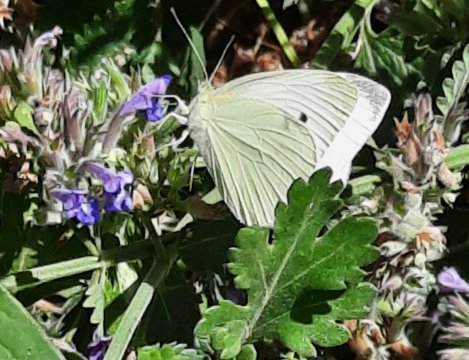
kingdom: Animalia
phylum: Arthropoda
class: Insecta
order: Lepidoptera
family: Pieridae
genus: Pieris
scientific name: Pieris rapae
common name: Cabbage White
